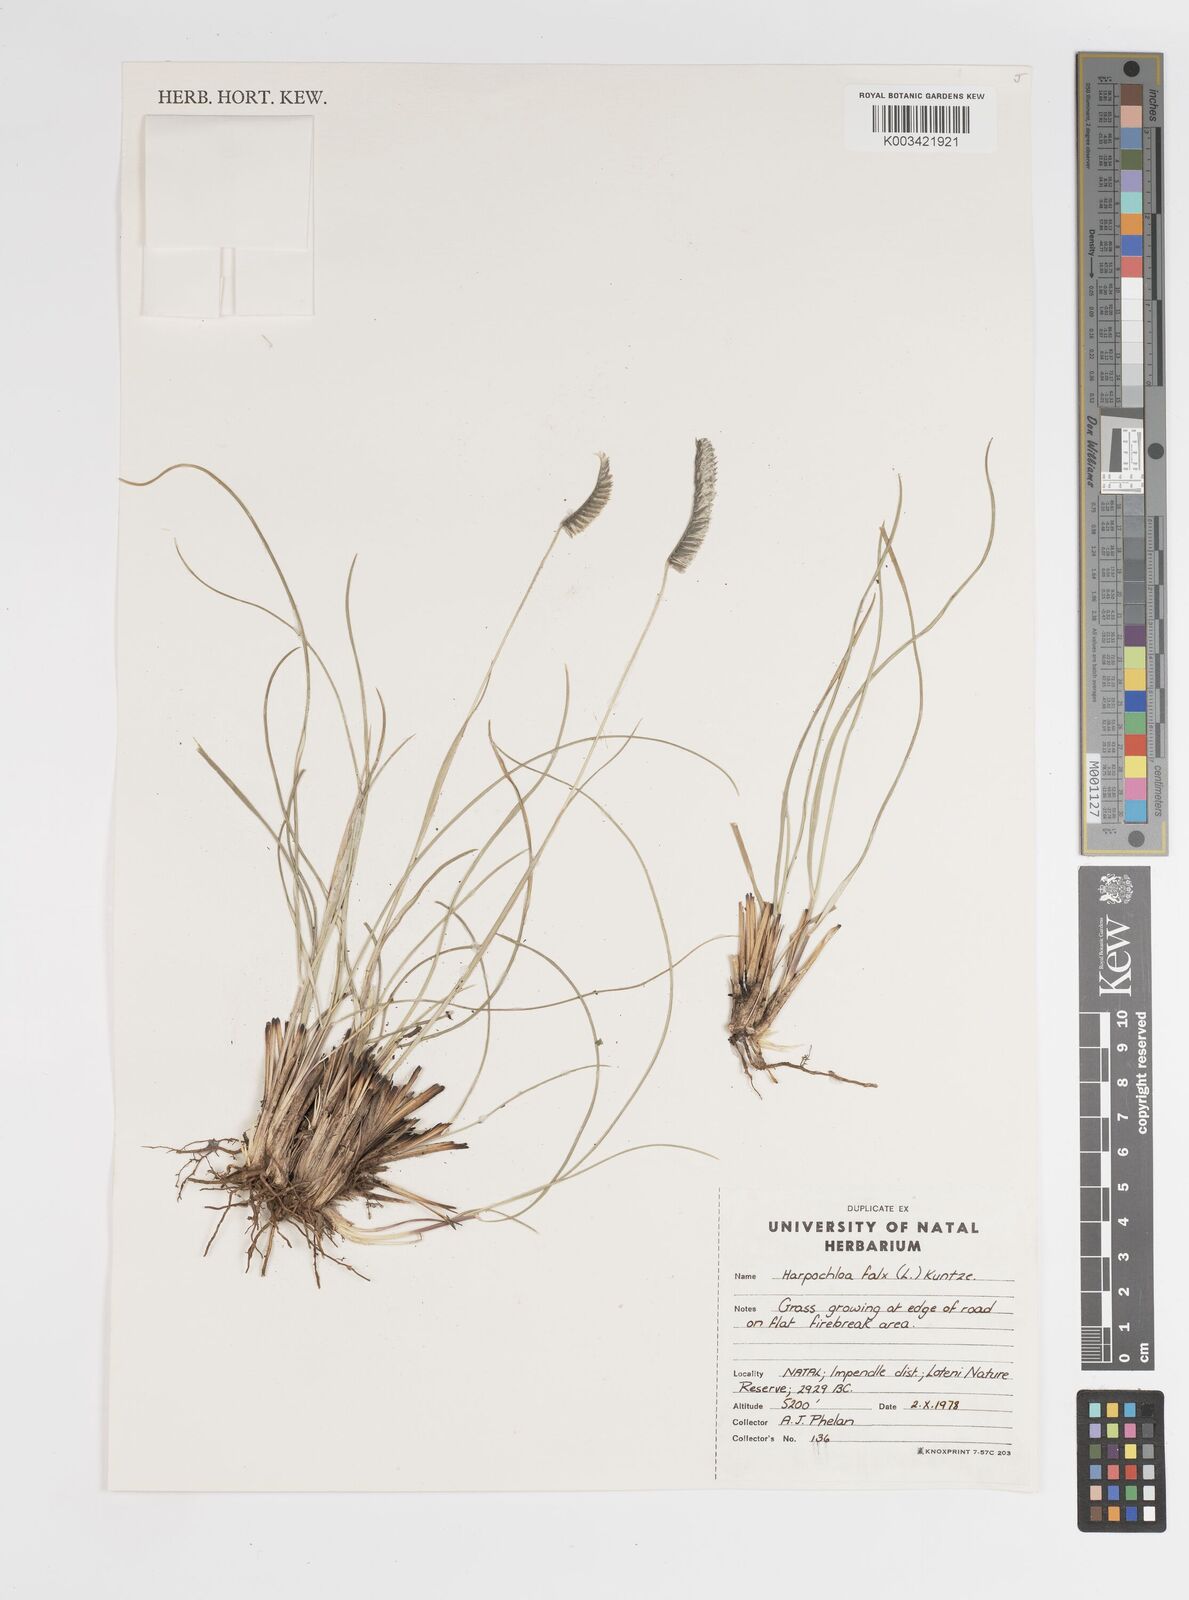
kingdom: Plantae
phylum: Tracheophyta
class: Liliopsida
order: Poales
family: Poaceae
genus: Harpochloa
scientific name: Harpochloa falx
